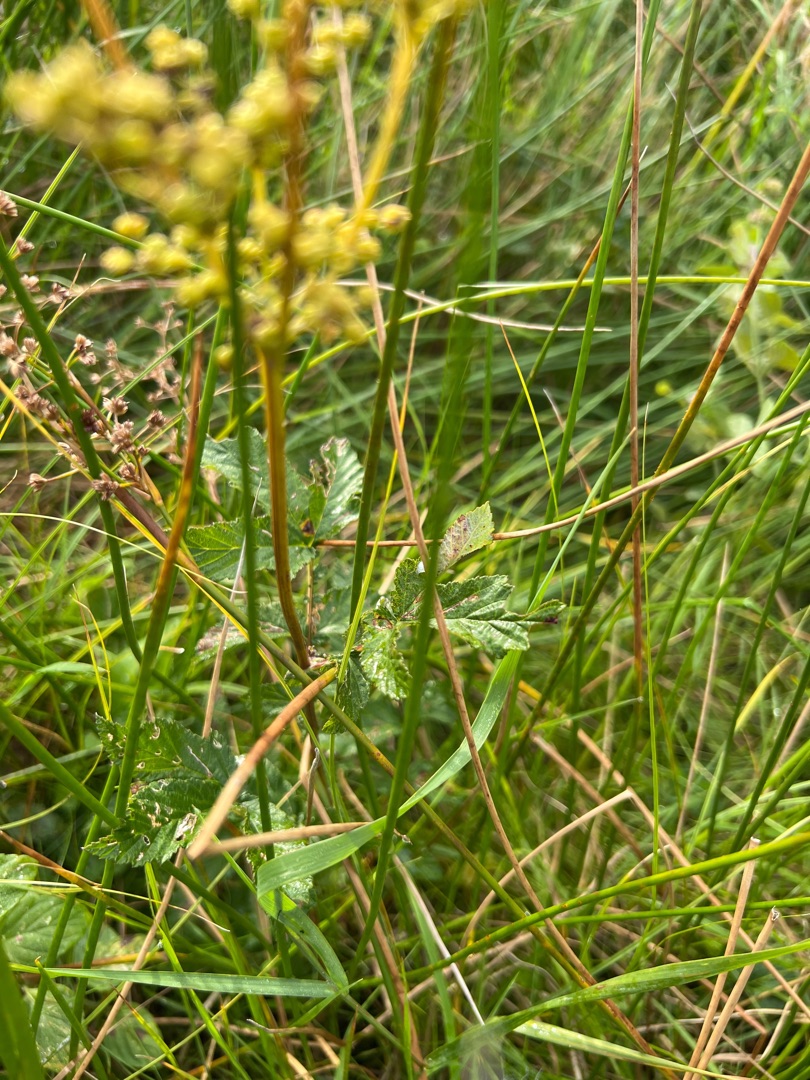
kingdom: Plantae
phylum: Tracheophyta
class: Magnoliopsida
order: Rosales
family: Rosaceae
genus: Filipendula
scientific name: Filipendula ulmaria
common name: Almindelig mjødurt
